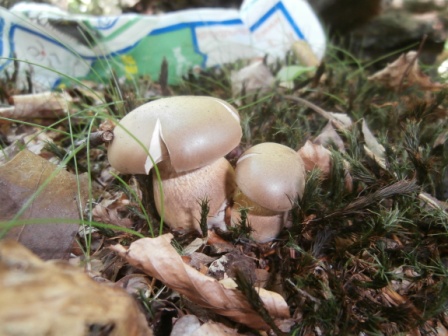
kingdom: Fungi
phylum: Basidiomycota
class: Agaricomycetes
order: Boletales
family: Boletaceae
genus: Tylopilus
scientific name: Tylopilus felleus
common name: galderørhat
